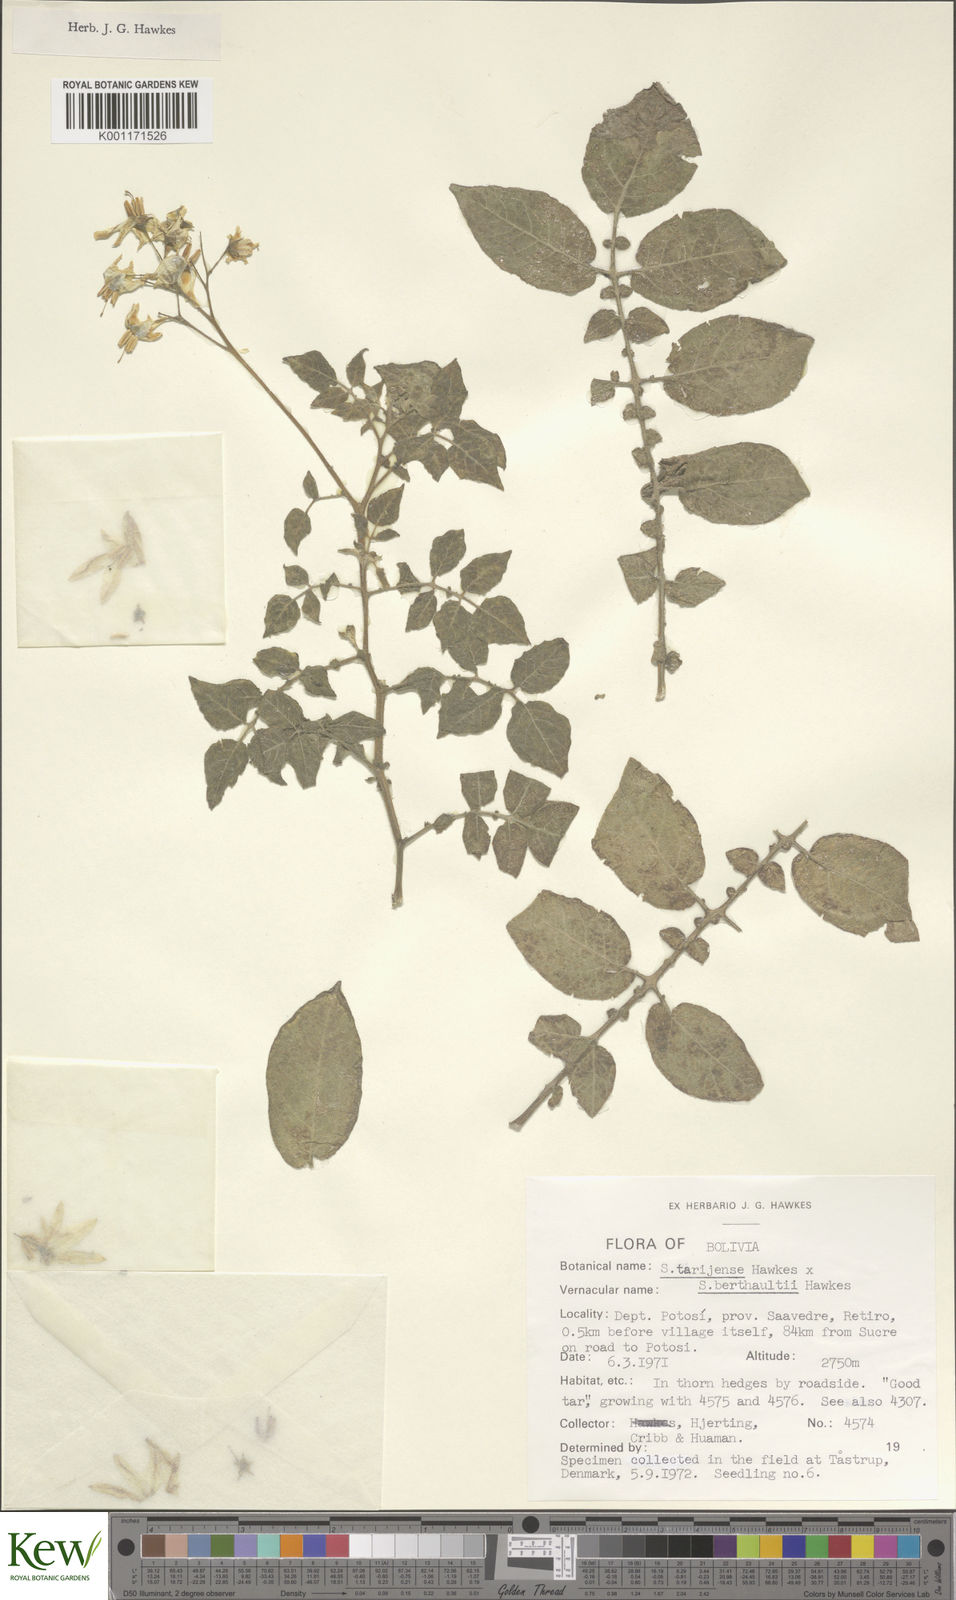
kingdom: Plantae
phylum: Tracheophyta
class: Magnoliopsida
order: Solanales
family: Solanaceae
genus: Solanum
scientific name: Solanum tarijense
